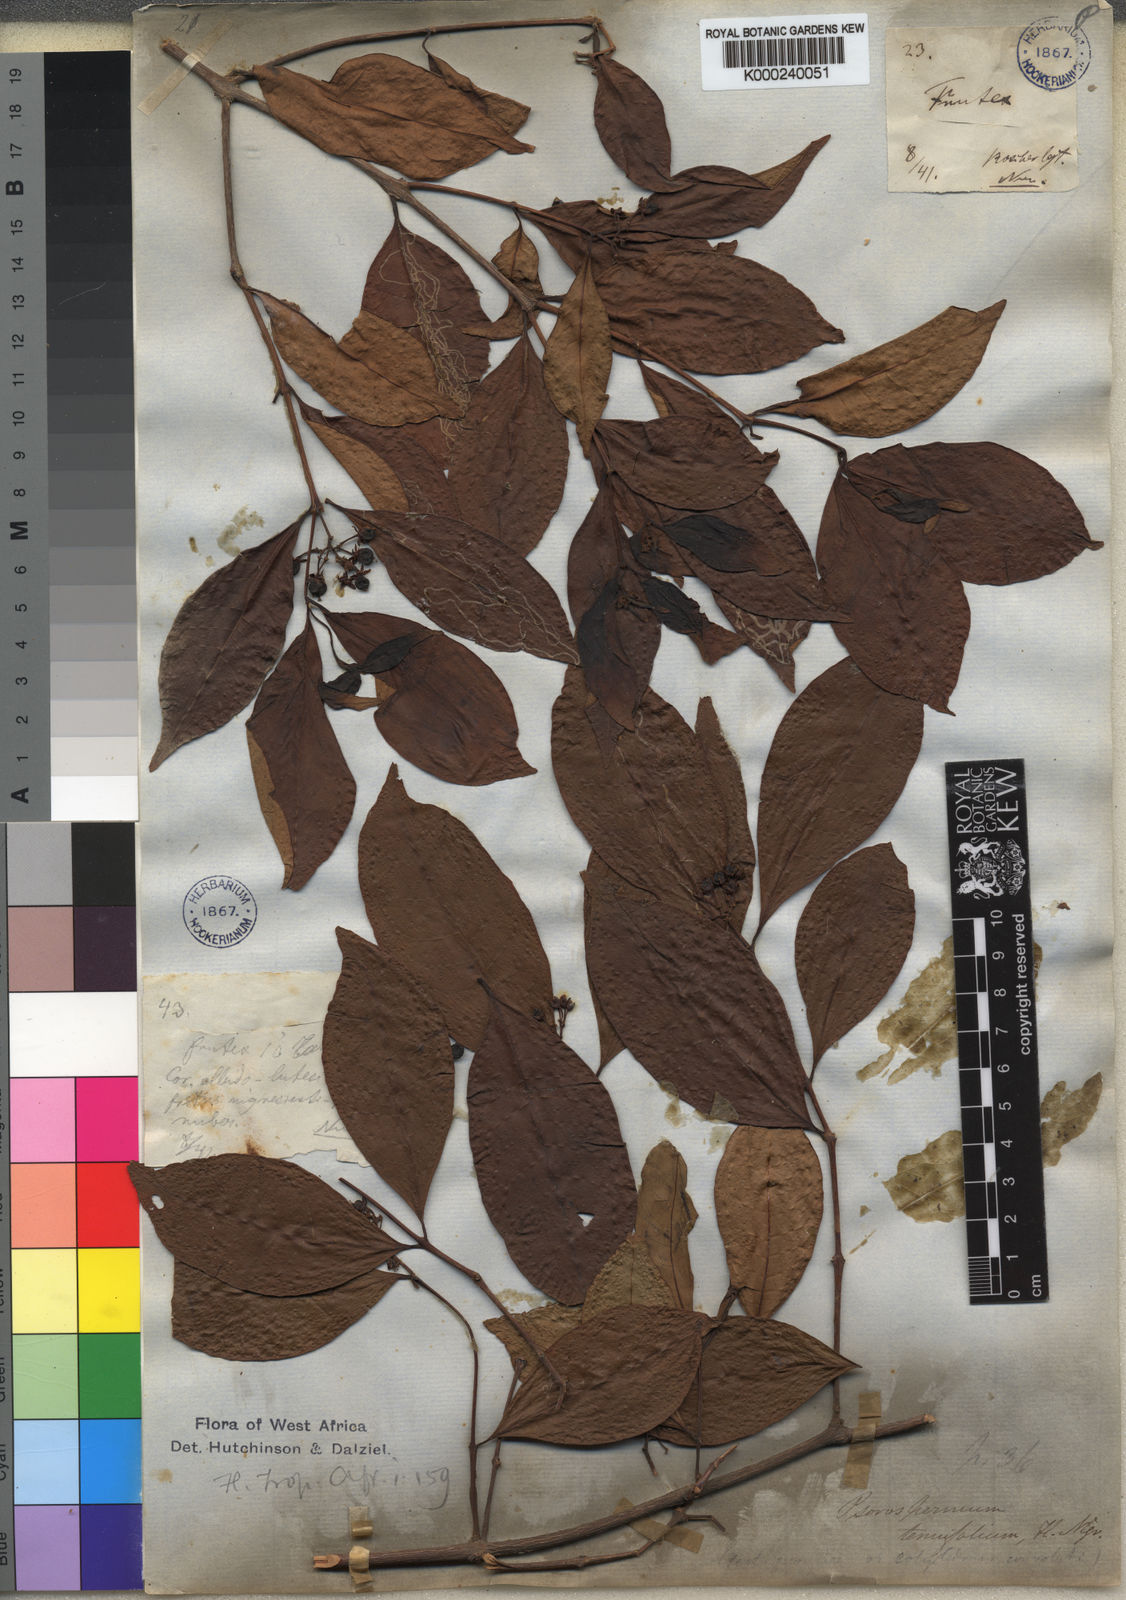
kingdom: Plantae
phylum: Tracheophyta
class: Magnoliopsida
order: Malpighiales
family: Hypericaceae
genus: Psorospermum
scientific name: Psorospermum tenuifolium
